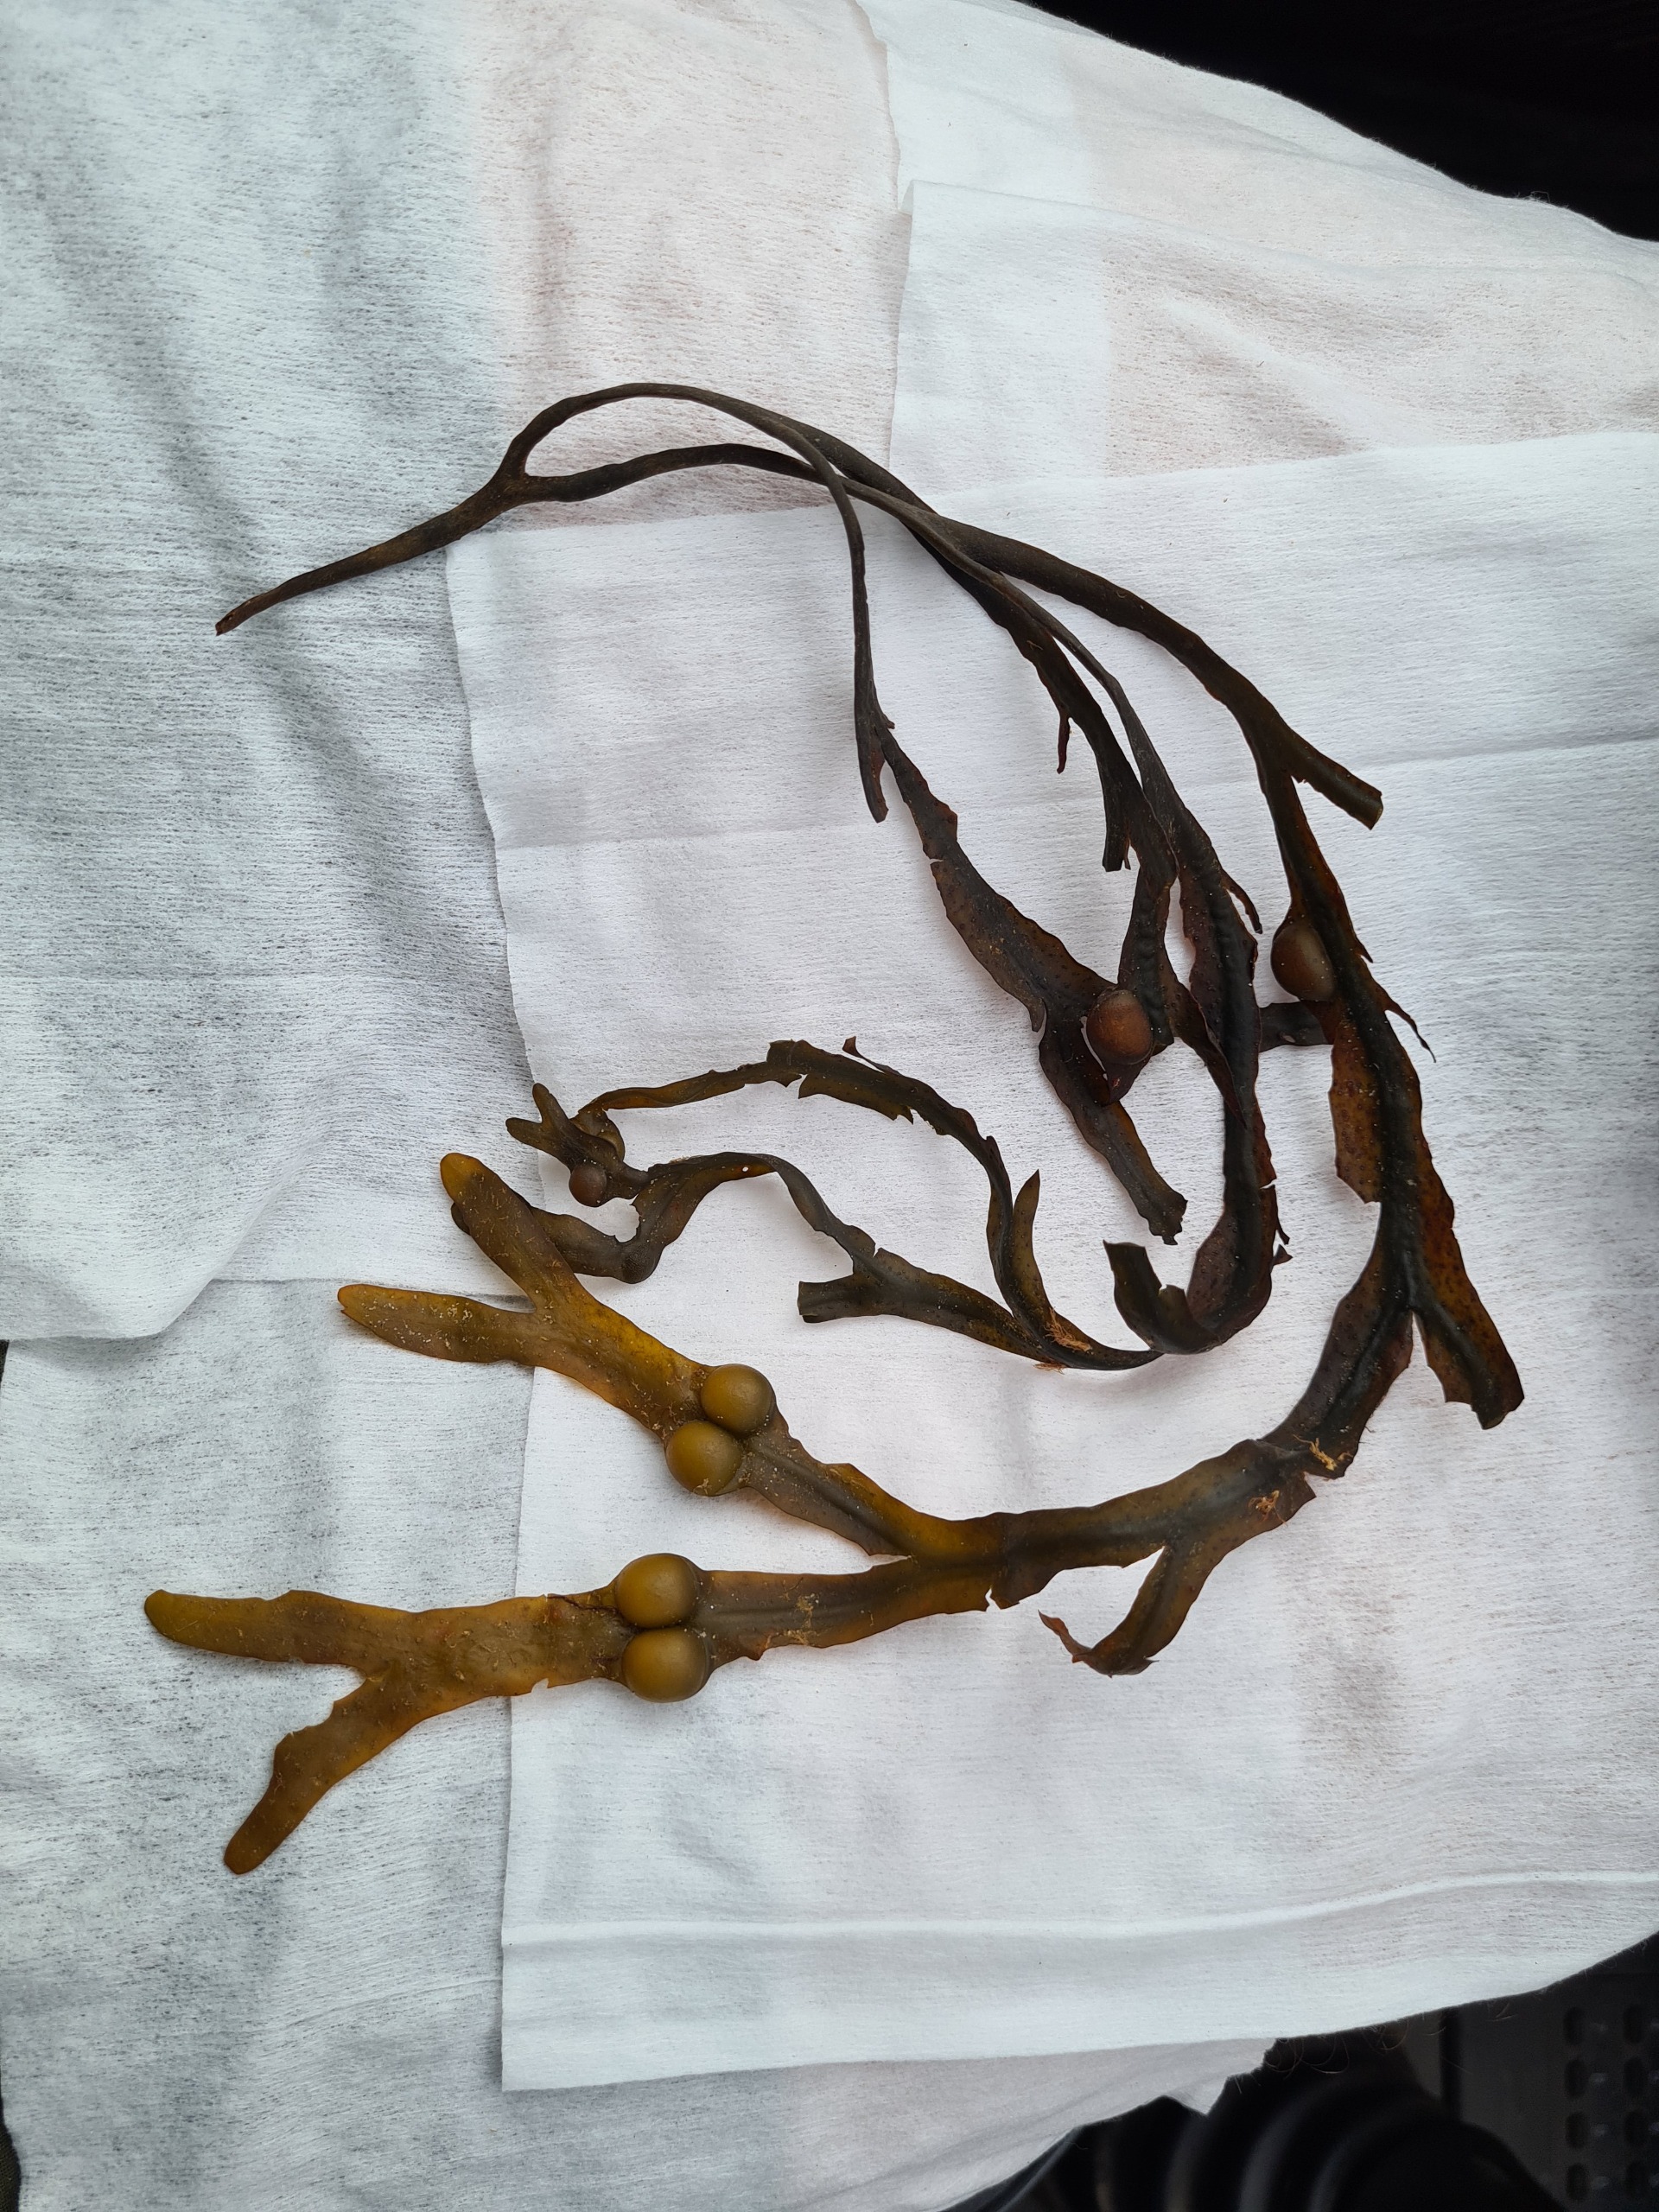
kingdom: Chromista
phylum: Ochrophyta
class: Phaeophyceae
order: Fucales
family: Fucaceae
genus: Fucus
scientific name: Fucus vesiculosus
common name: Blæretang
